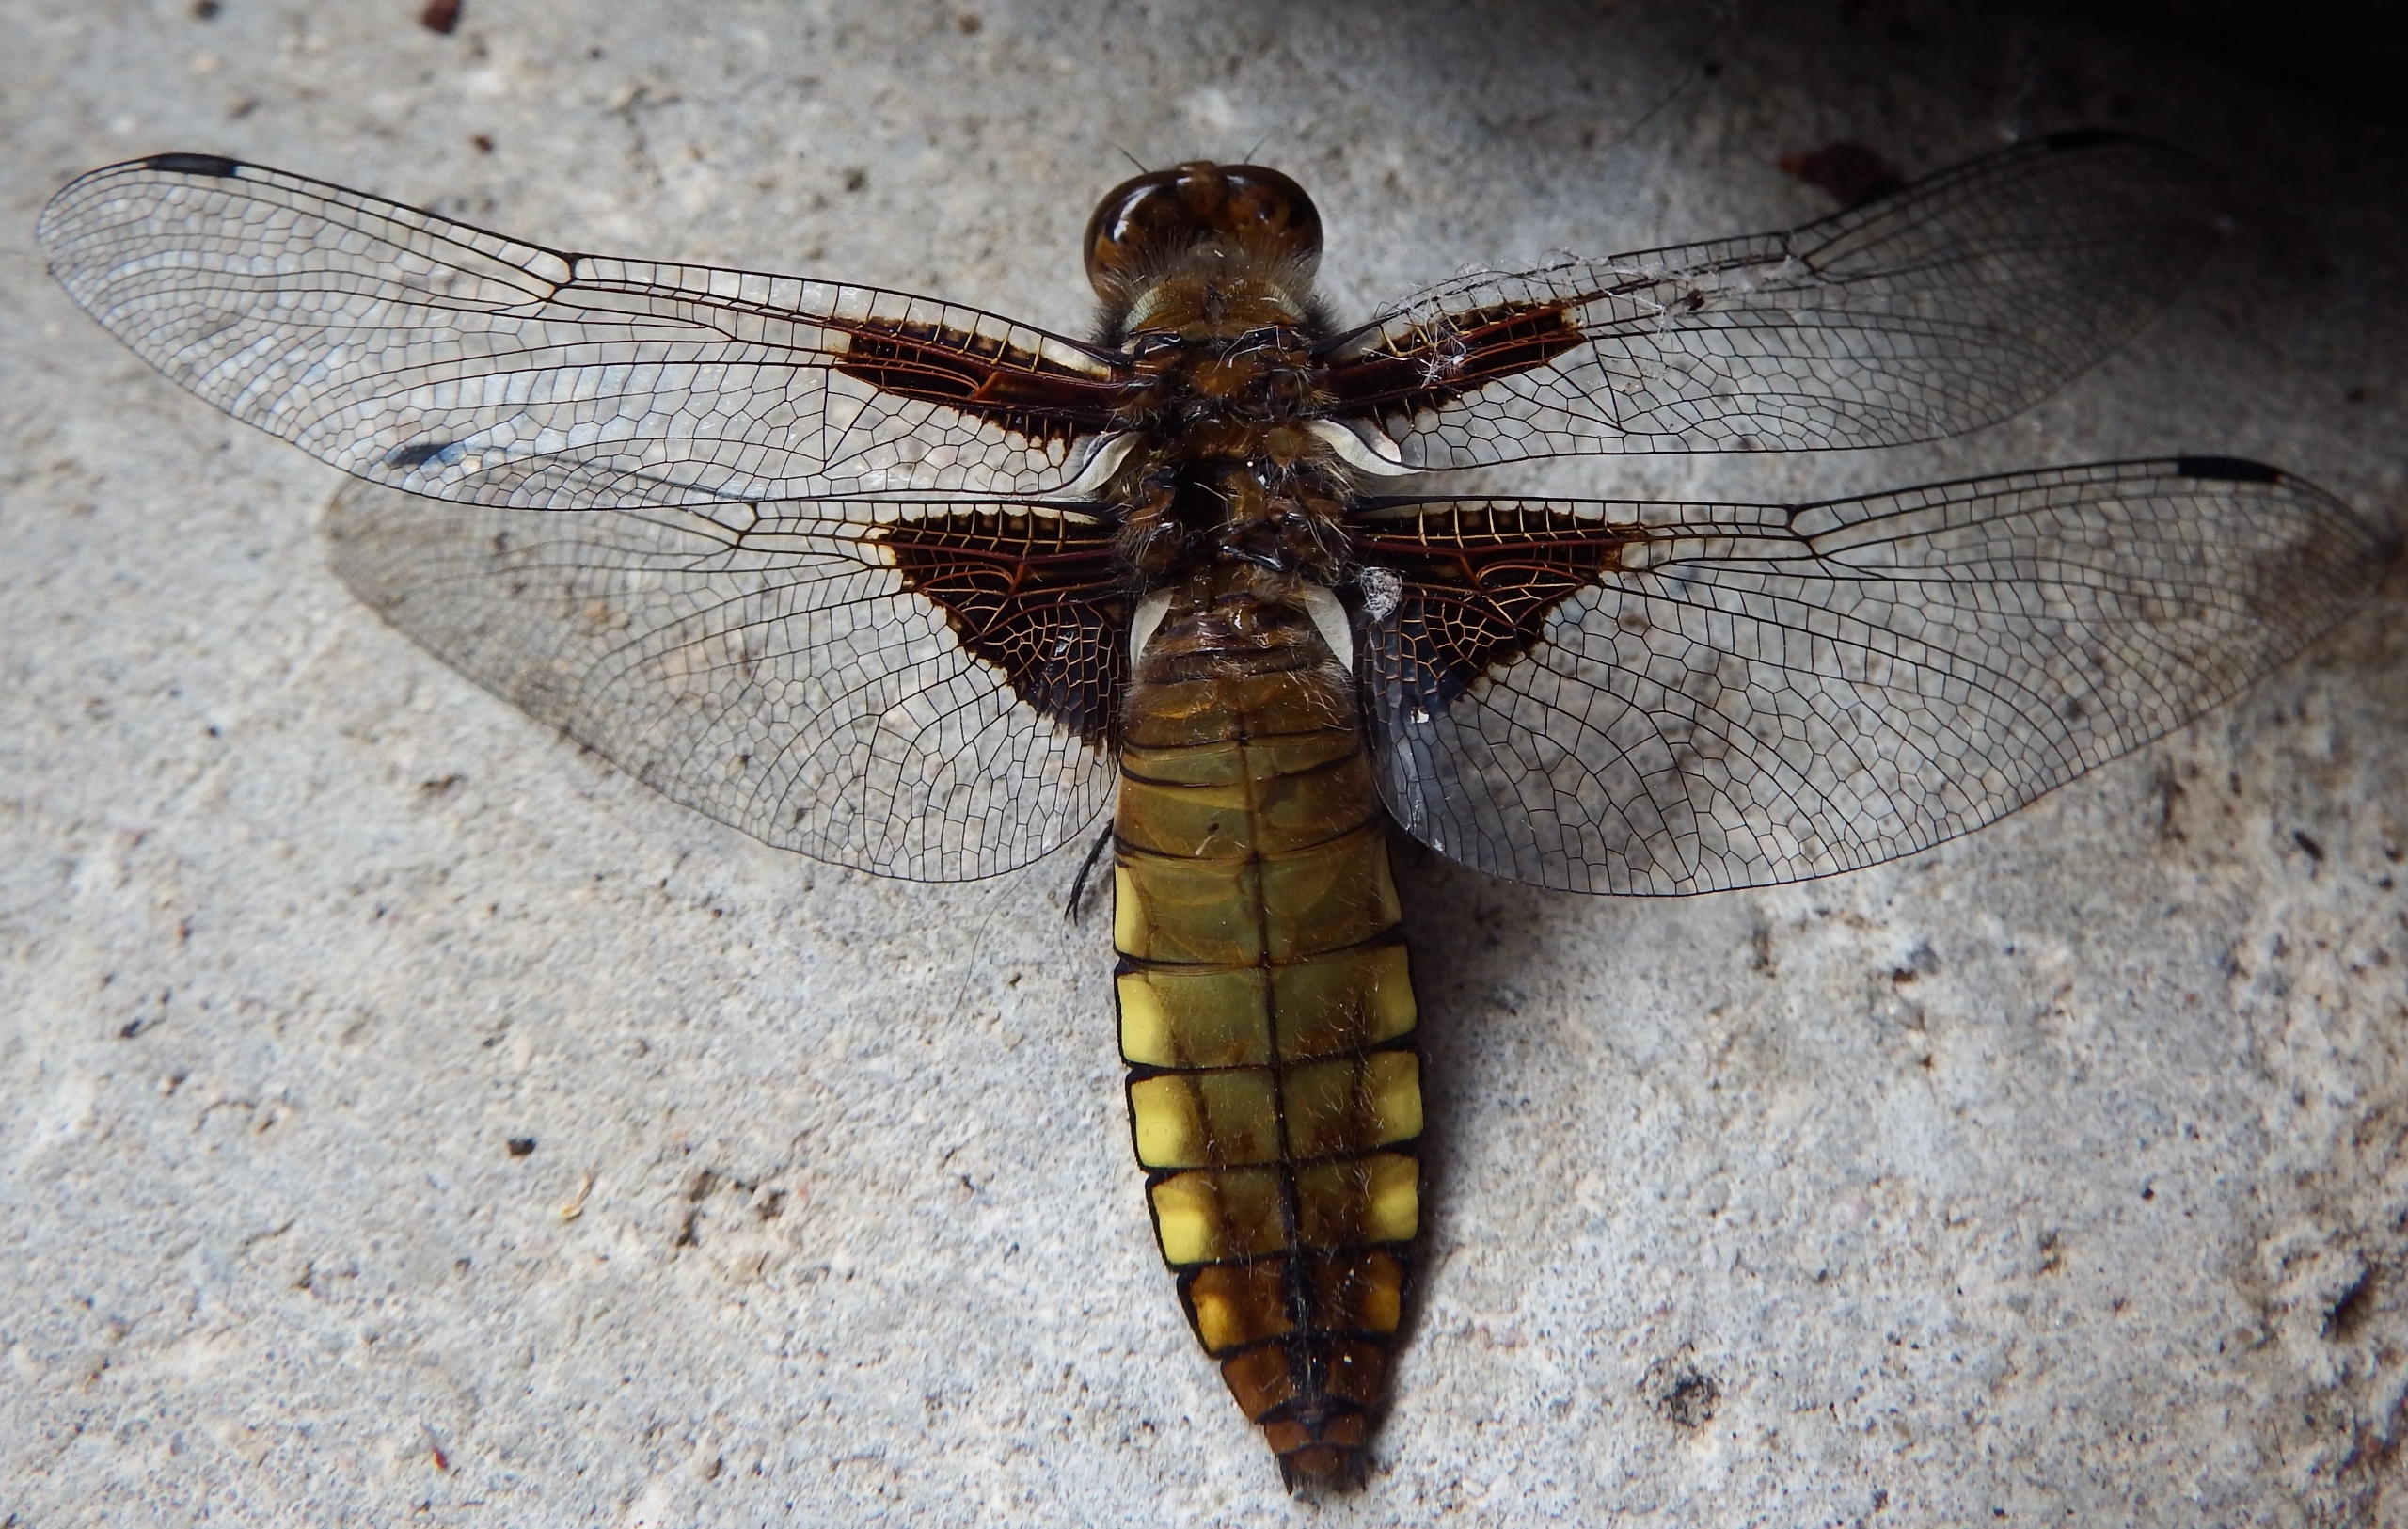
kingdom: Animalia
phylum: Arthropoda
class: Insecta
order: Odonata
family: Libellulidae
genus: Libellula
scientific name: Libellula depressa
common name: Blå libel
